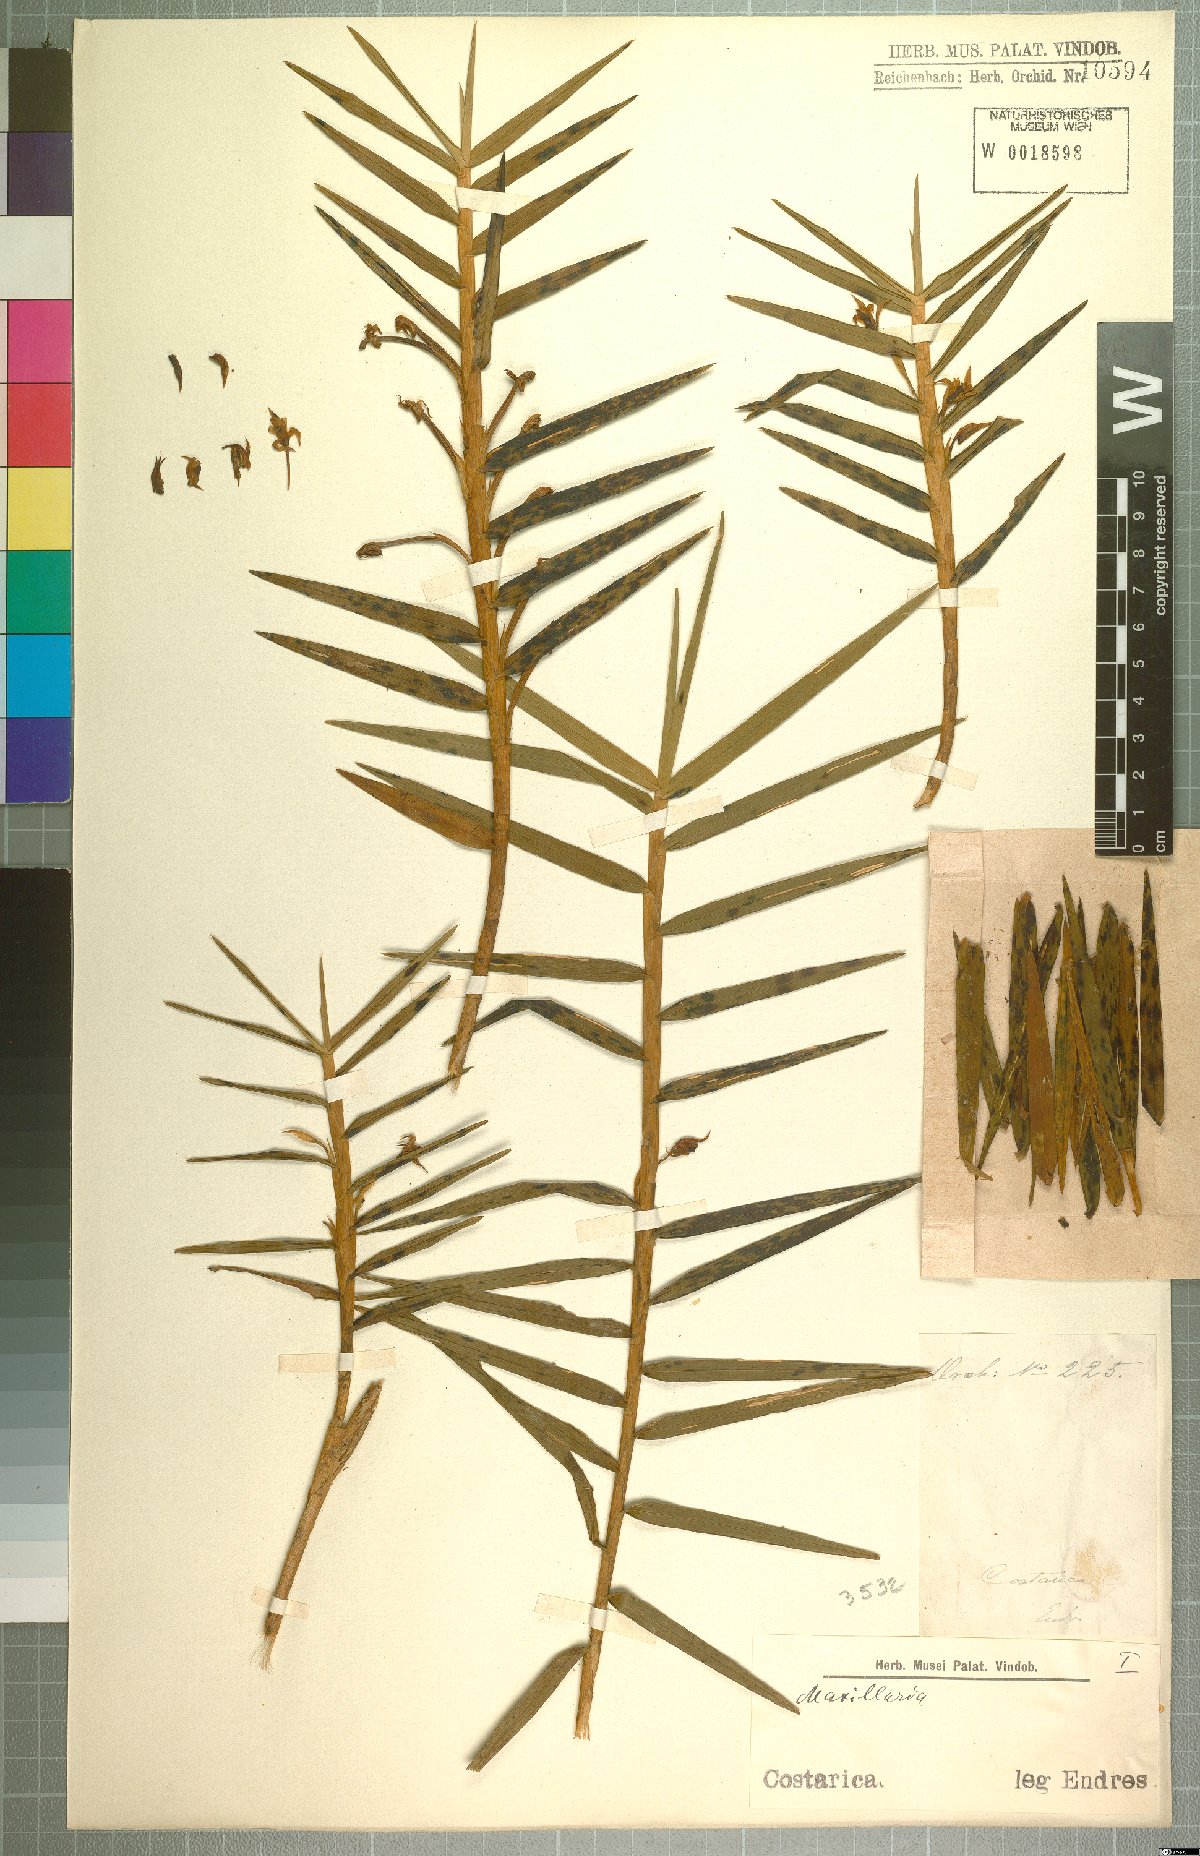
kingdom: Plantae
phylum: Tracheophyta
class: Liliopsida
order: Asparagales
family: Orchidaceae
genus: Maxillaria
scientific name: Maxillaria
